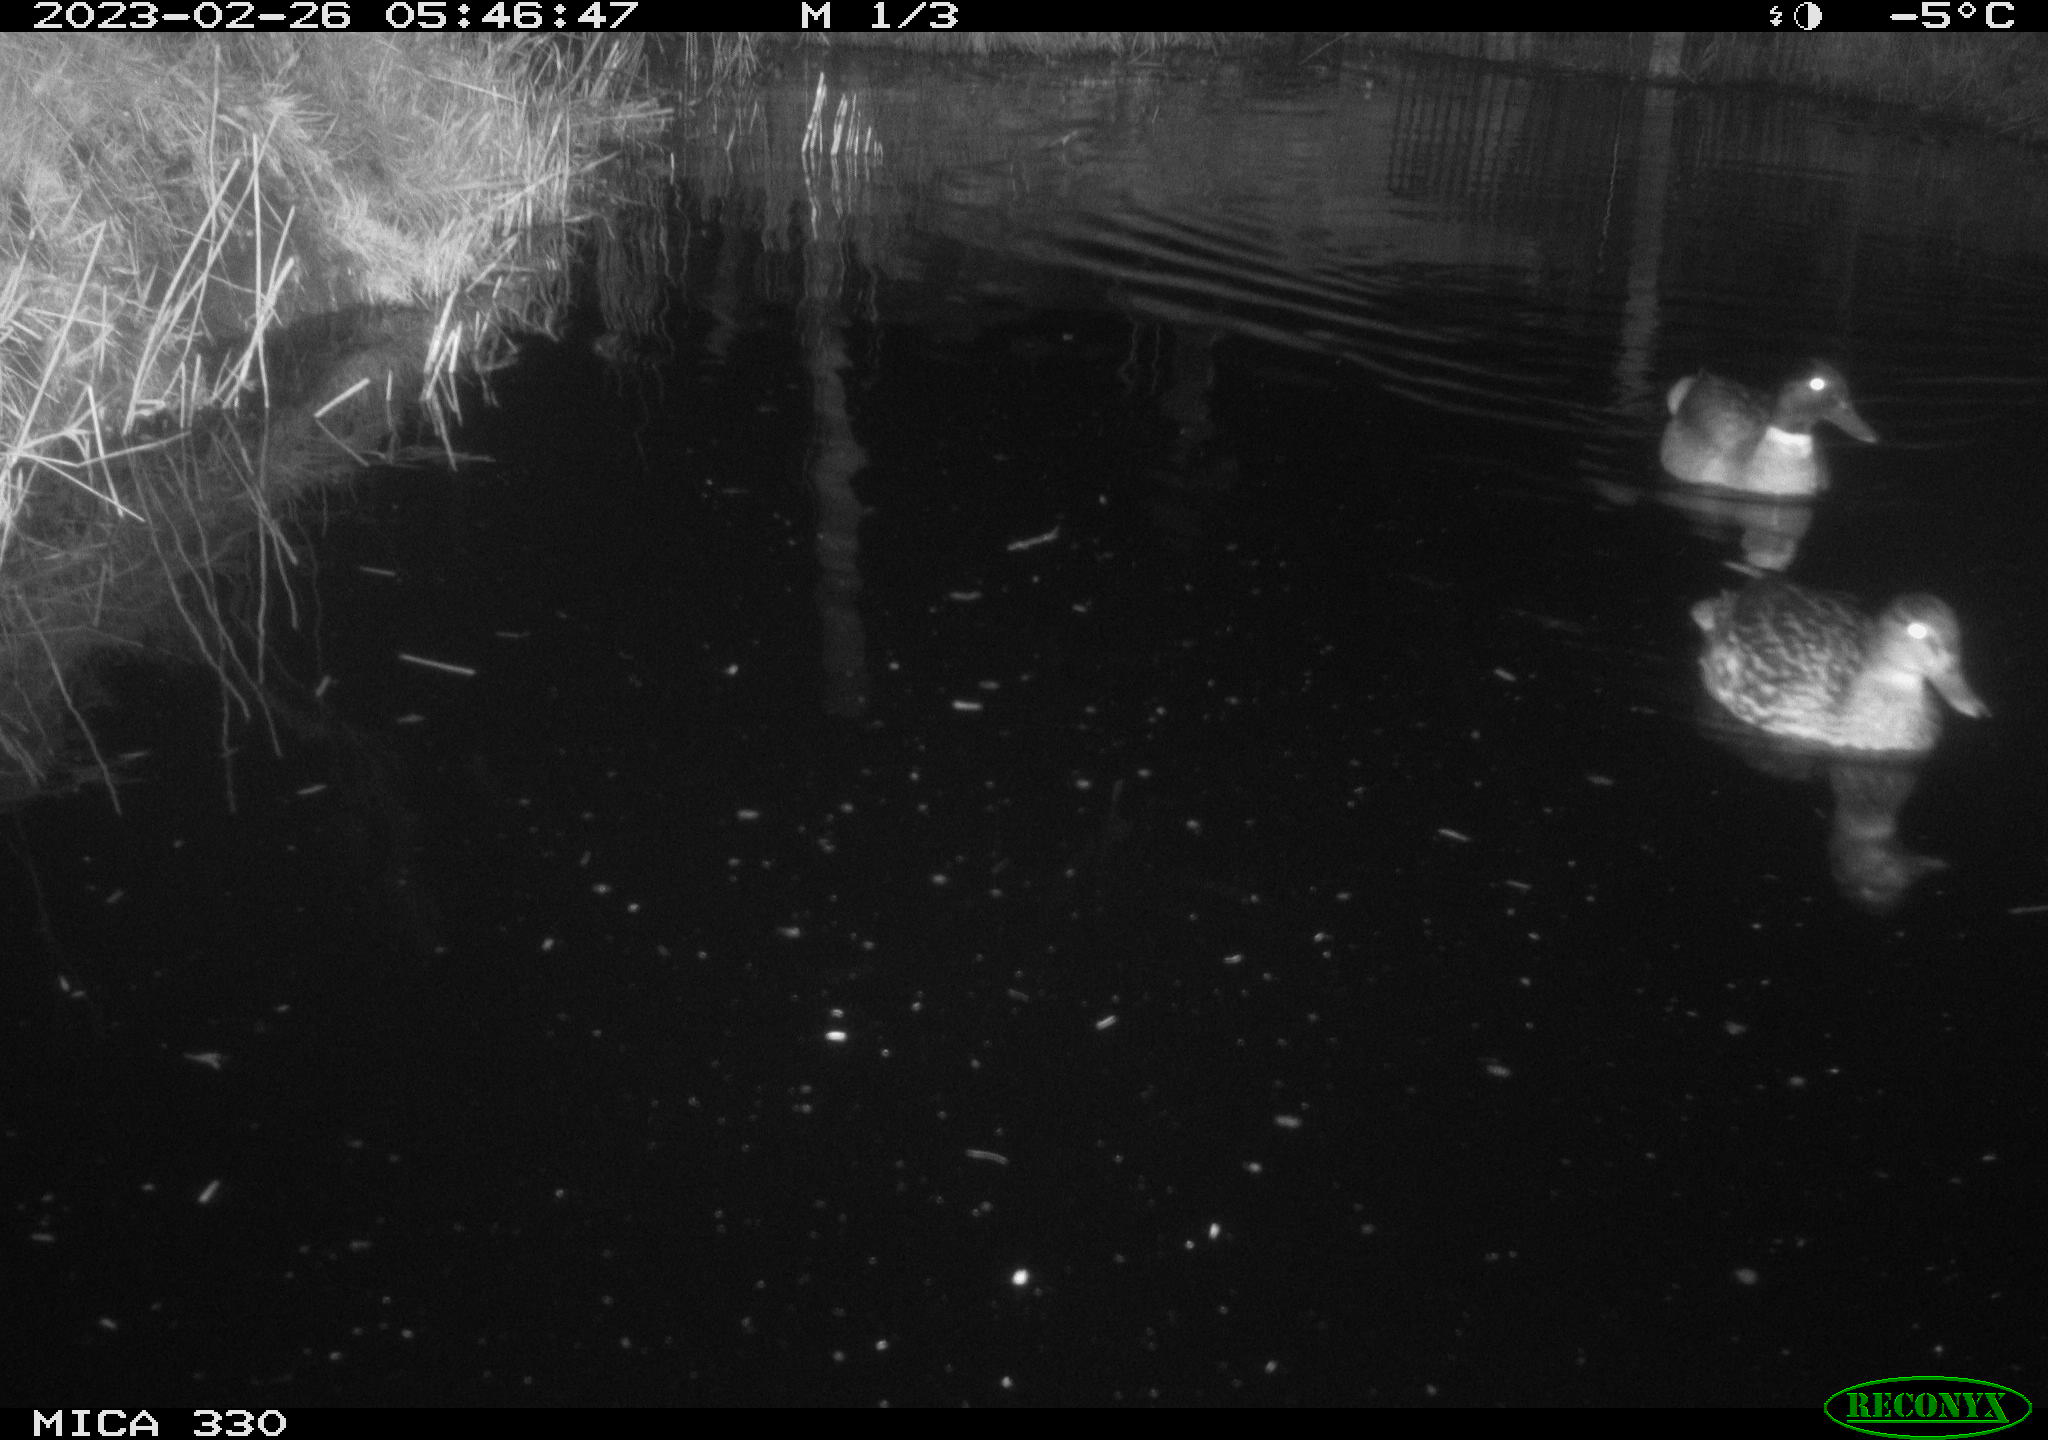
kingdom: Animalia
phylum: Chordata
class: Aves
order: Anseriformes
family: Anatidae
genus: Anas
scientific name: Anas
